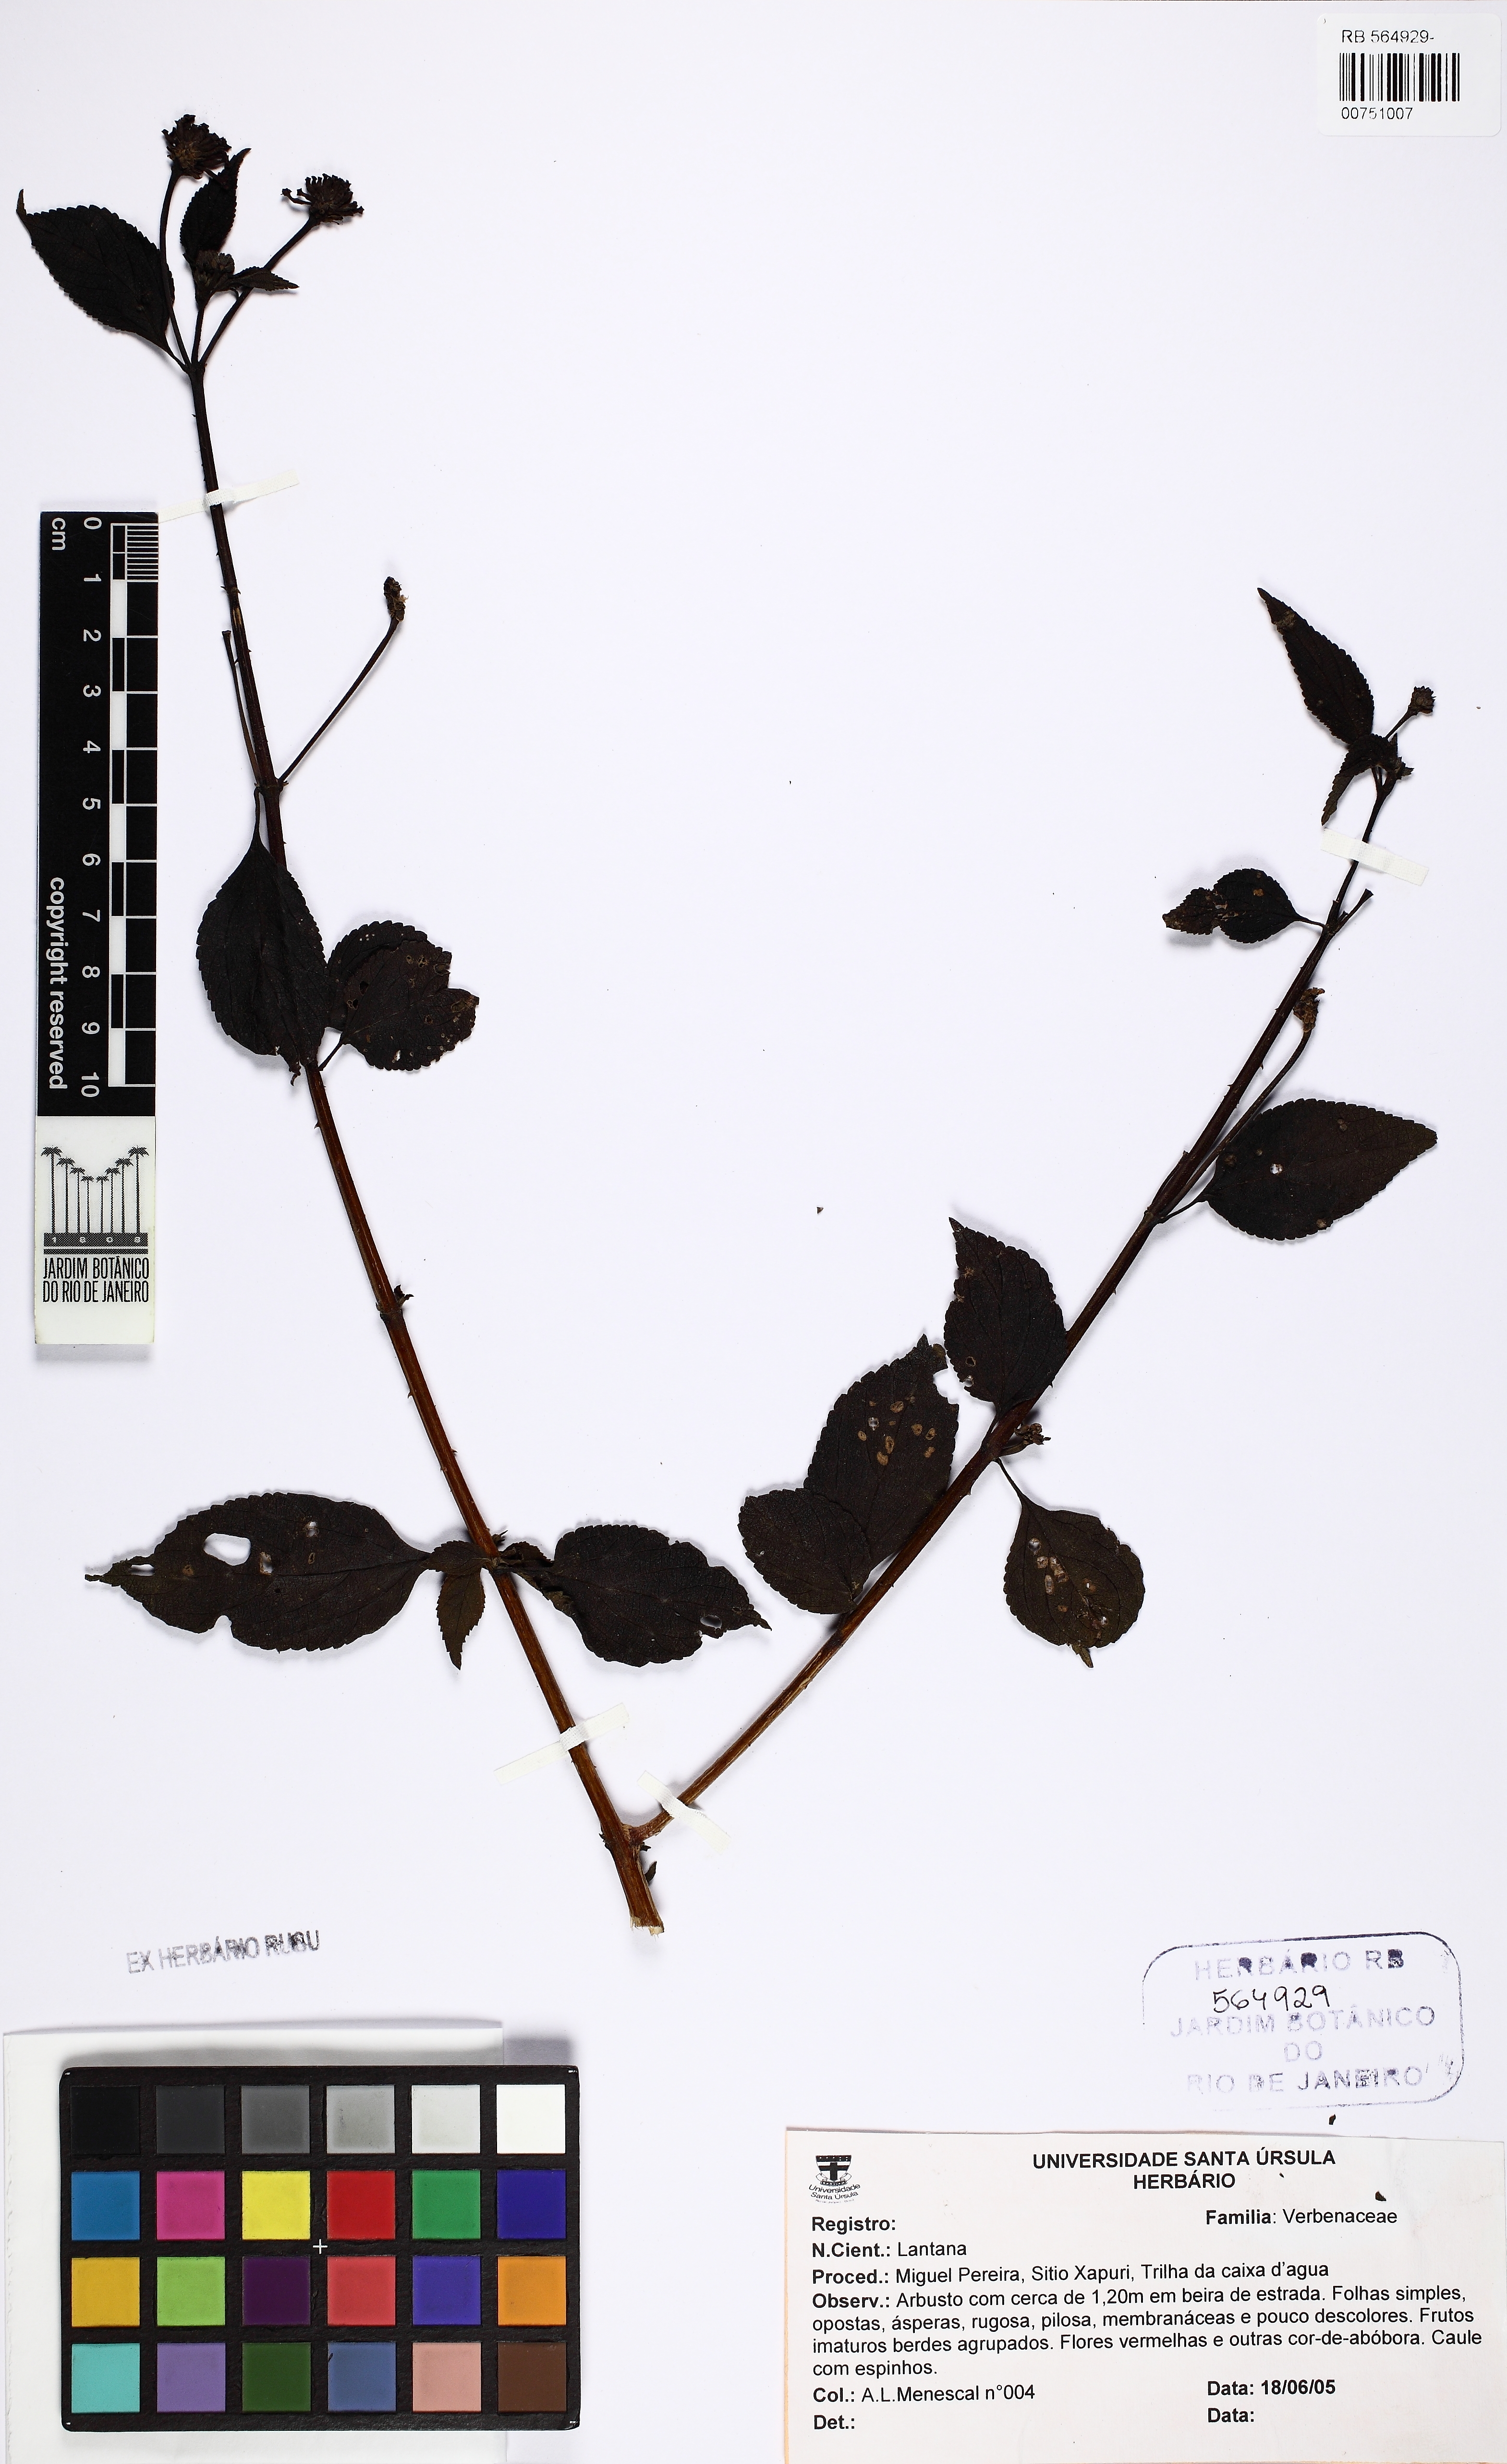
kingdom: Plantae
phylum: Tracheophyta
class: Magnoliopsida
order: Lamiales
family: Verbenaceae
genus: Lantana
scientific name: Lantana
